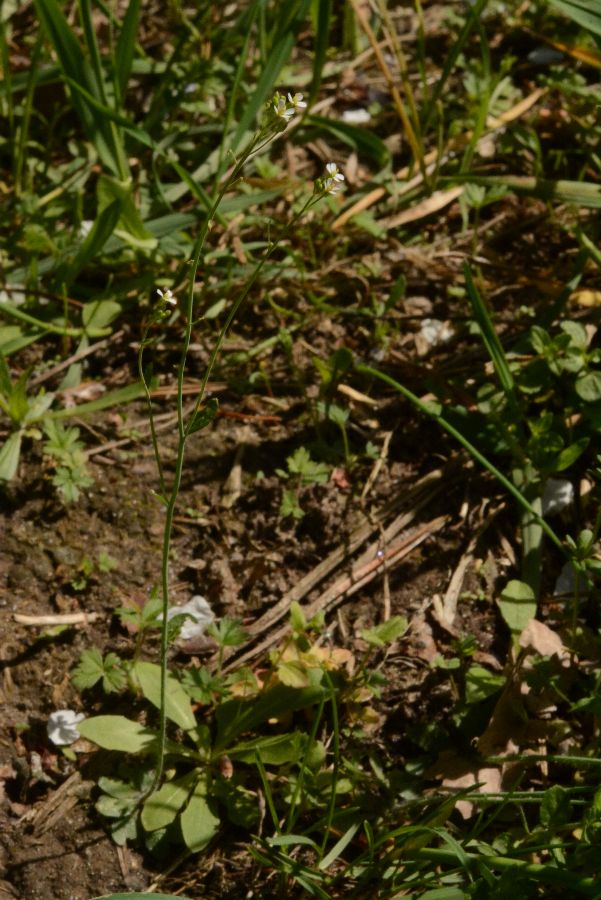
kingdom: Plantae
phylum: Tracheophyta
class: Magnoliopsida
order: Brassicales
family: Brassicaceae
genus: Arabidopsis
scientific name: Arabidopsis thaliana
